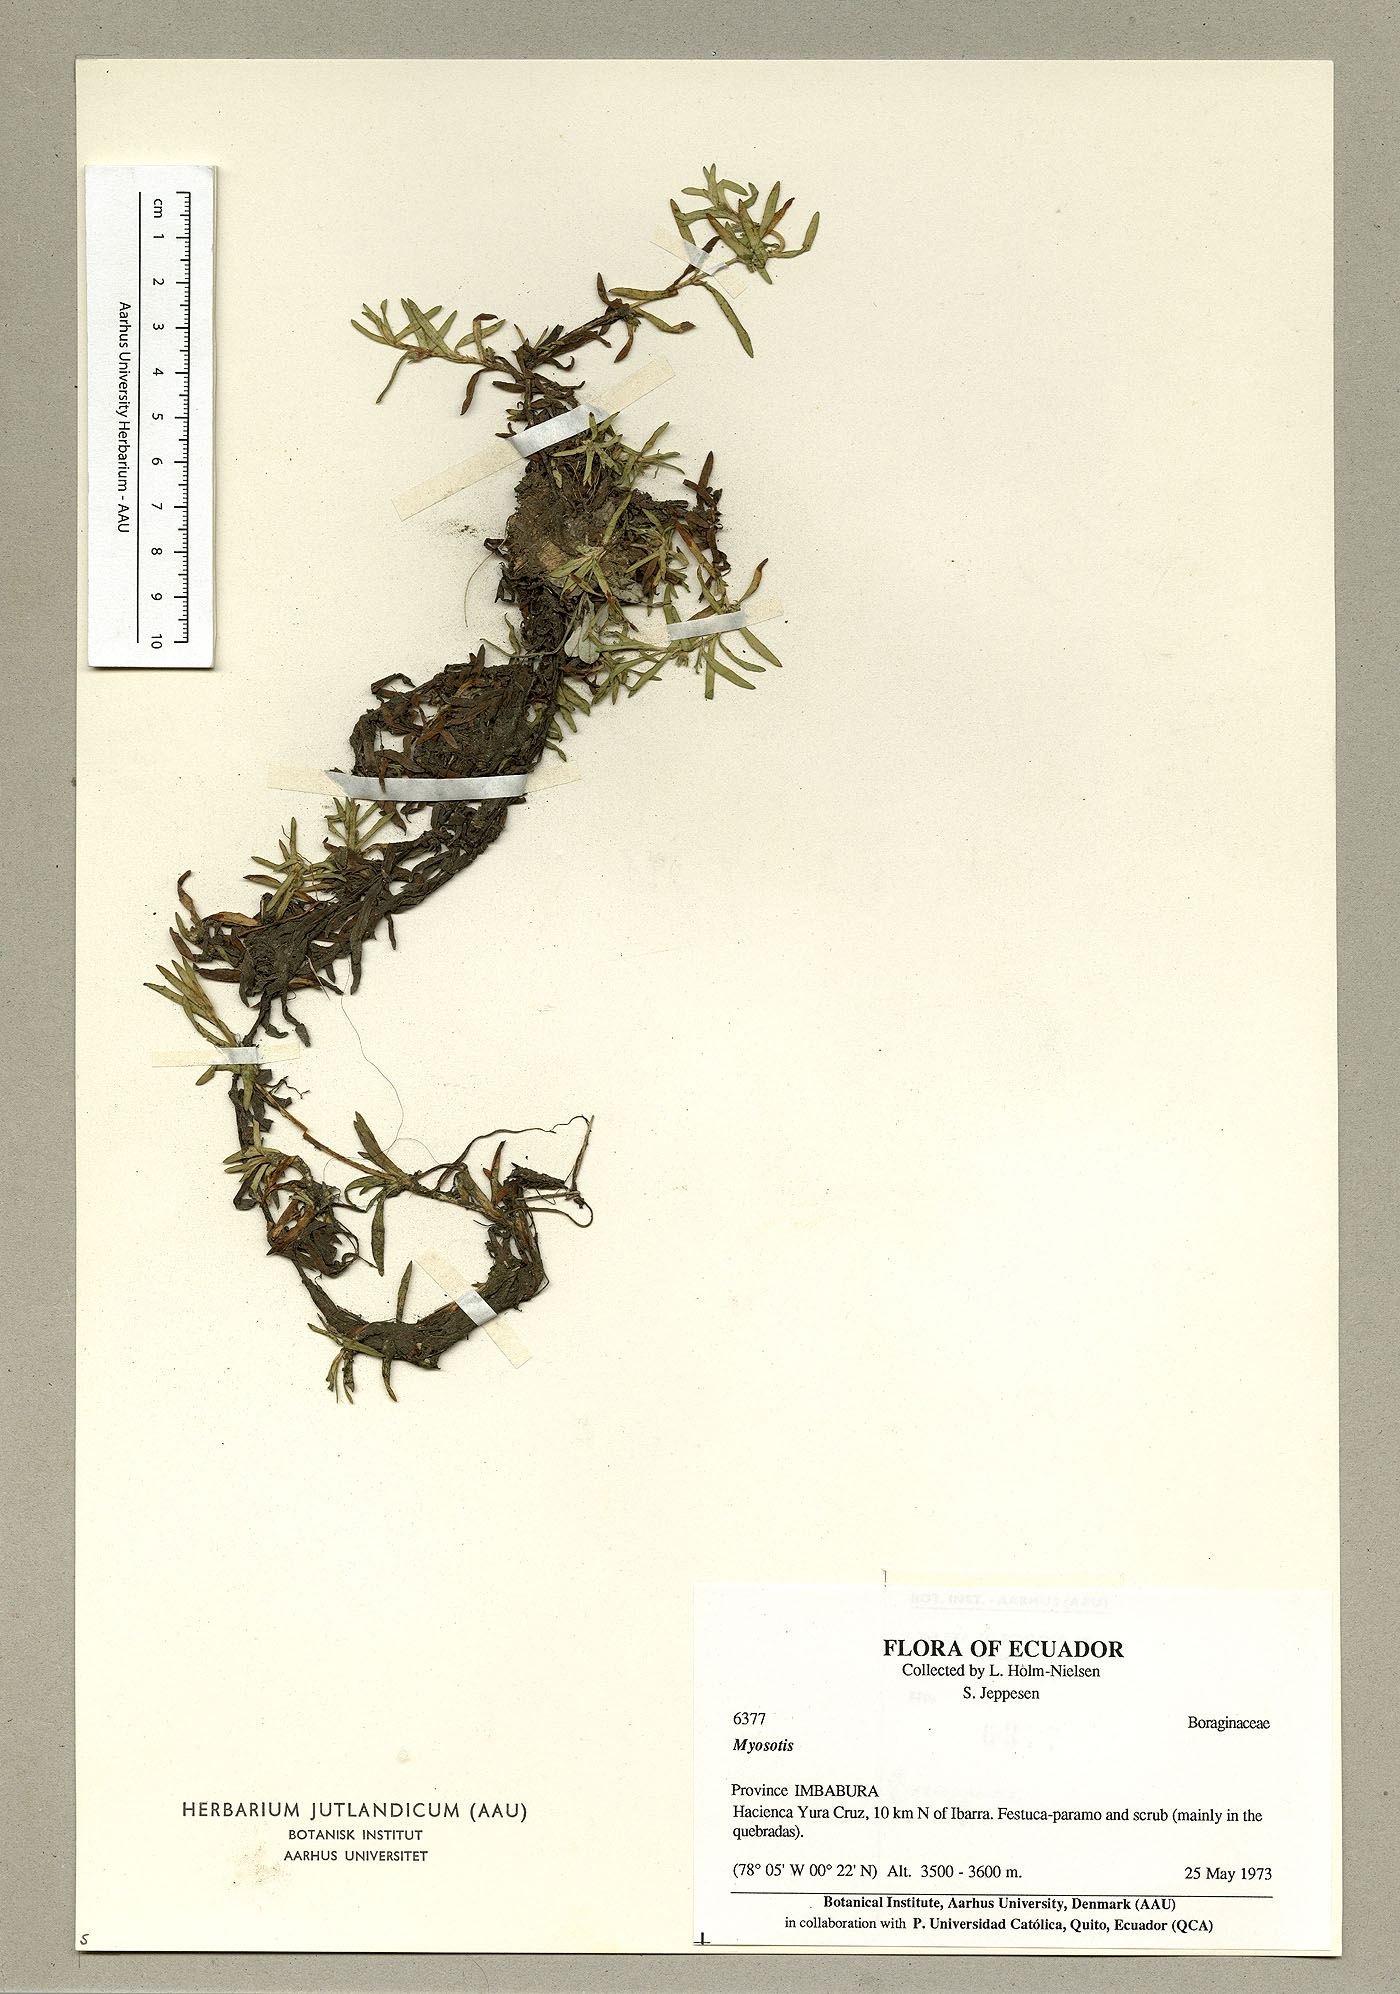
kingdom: Plantae
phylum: Tracheophyta
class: Magnoliopsida
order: Boraginales
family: Boraginaceae
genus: Plagiobothrys
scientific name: Plagiobothrys linifolius
